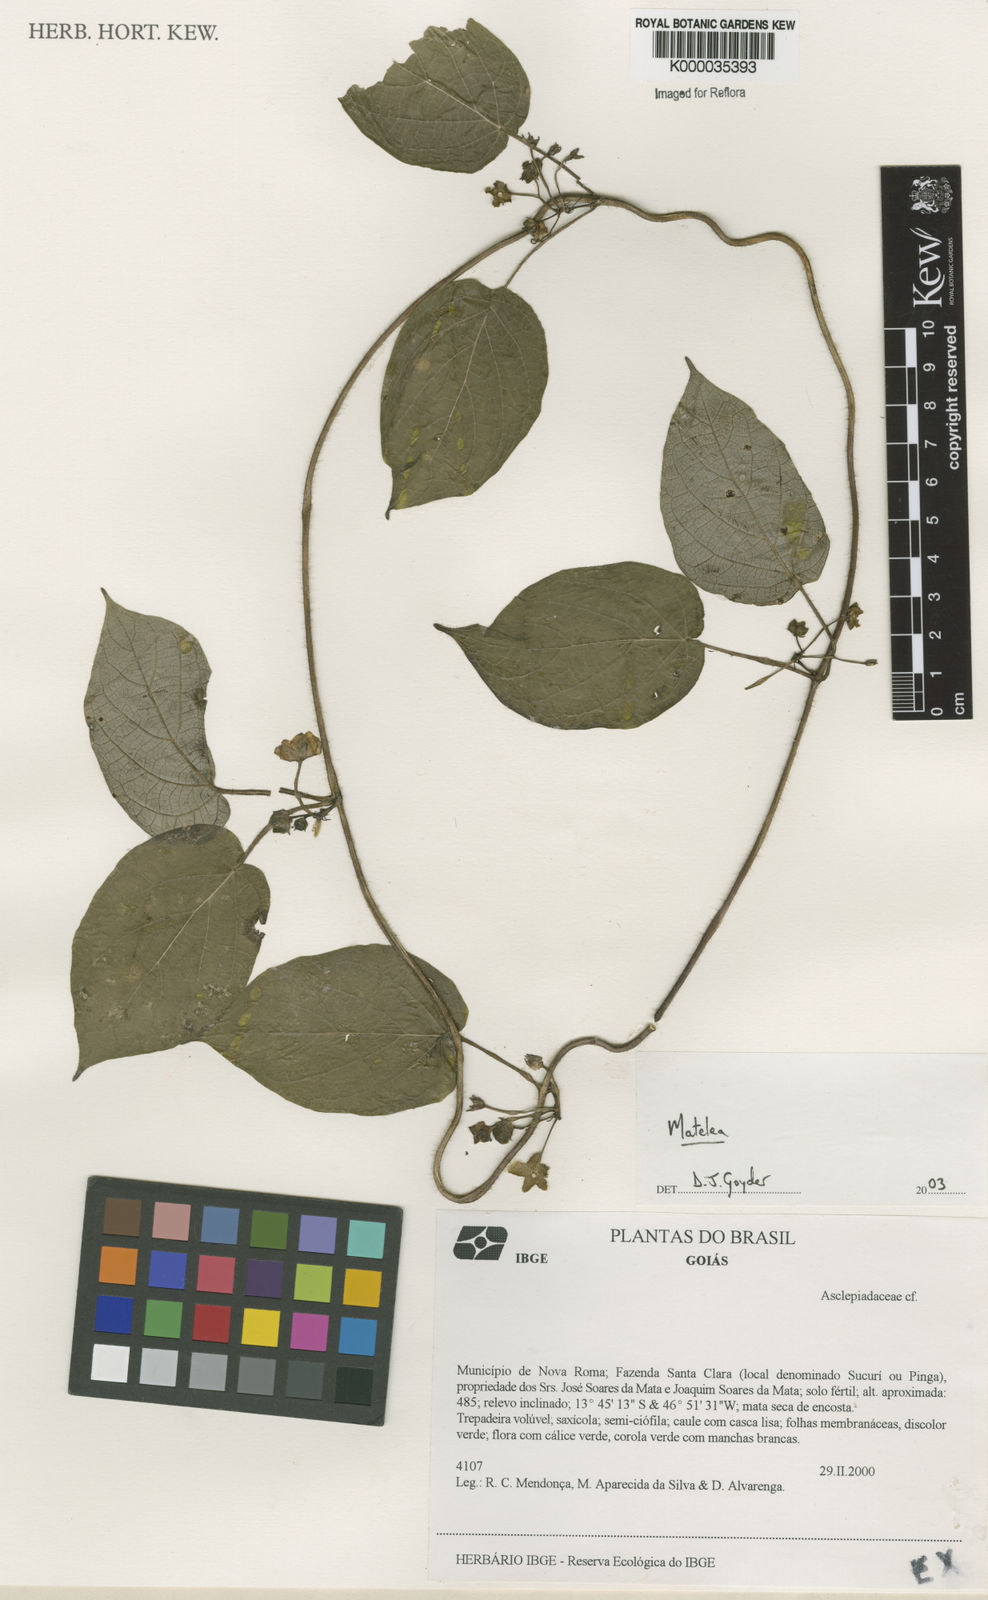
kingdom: Plantae
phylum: Tracheophyta
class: Magnoliopsida
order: Gentianales
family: Apocynaceae
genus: Matelea
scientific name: Matelea
